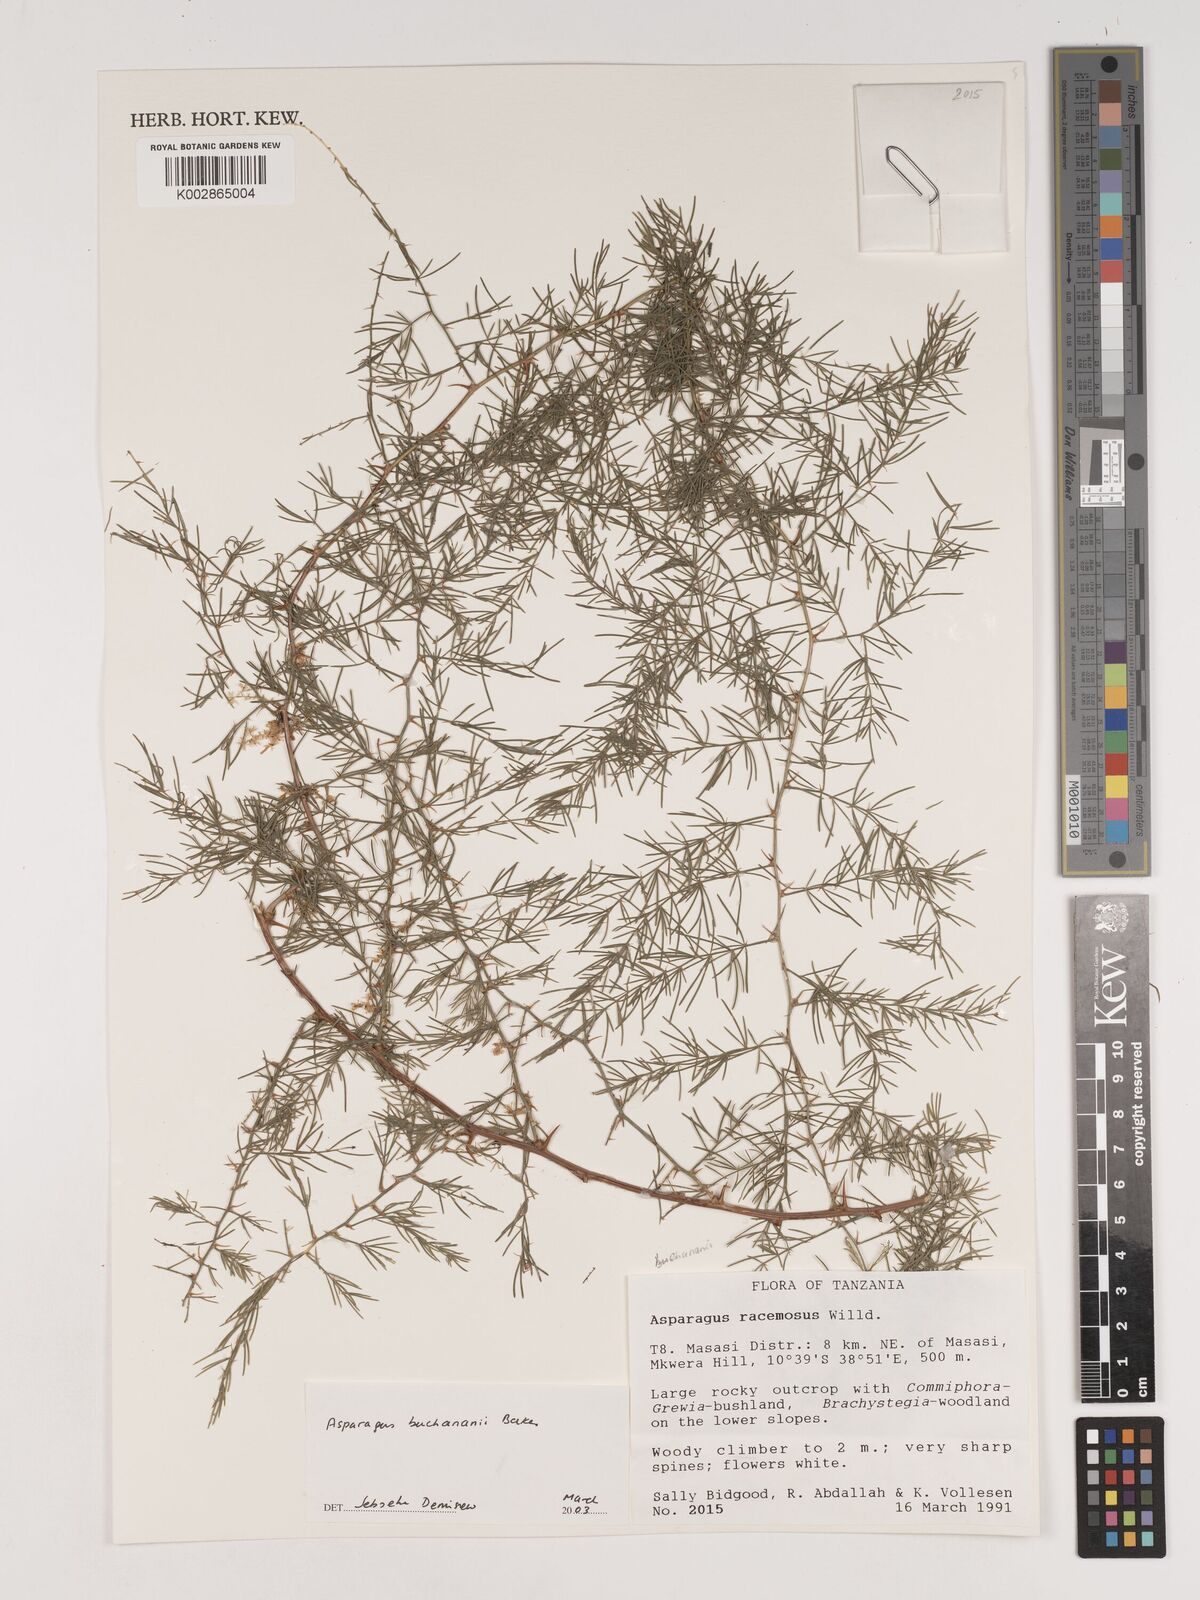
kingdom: Plantae
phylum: Tracheophyta
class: Liliopsida
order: Asparagales
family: Asparagaceae
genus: Asparagus
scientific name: Asparagus buchananii
